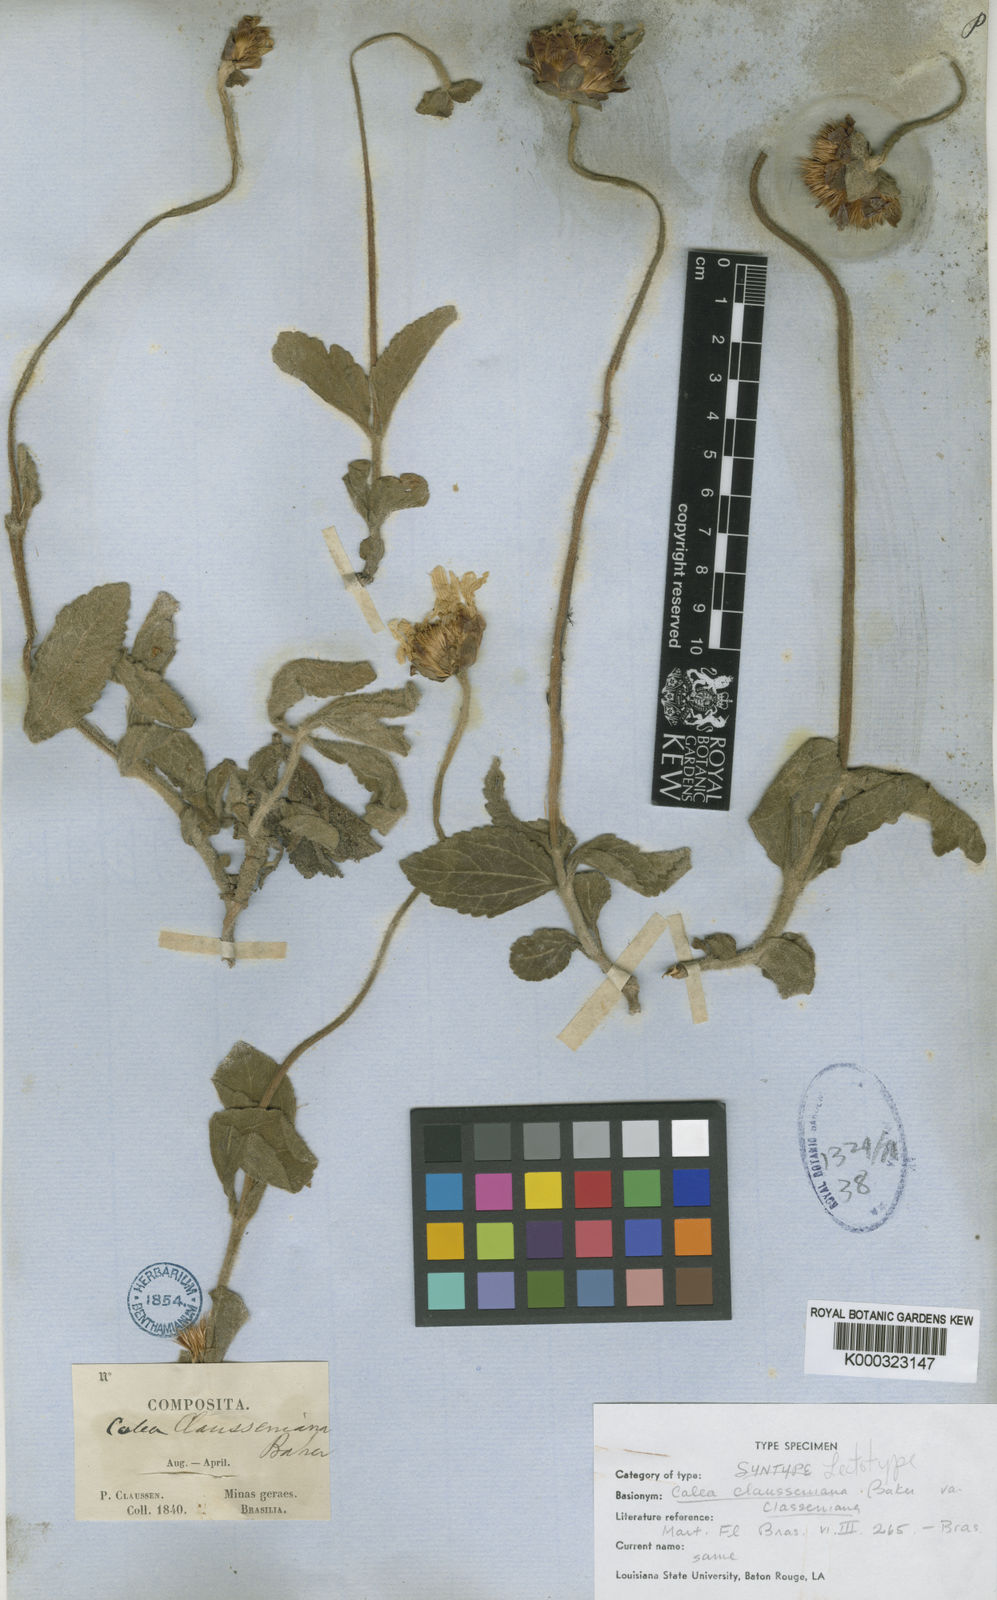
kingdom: Plantae
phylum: Tracheophyta
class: Magnoliopsida
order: Asterales
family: Asteraceae
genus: Calea
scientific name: Calea clausseniana
